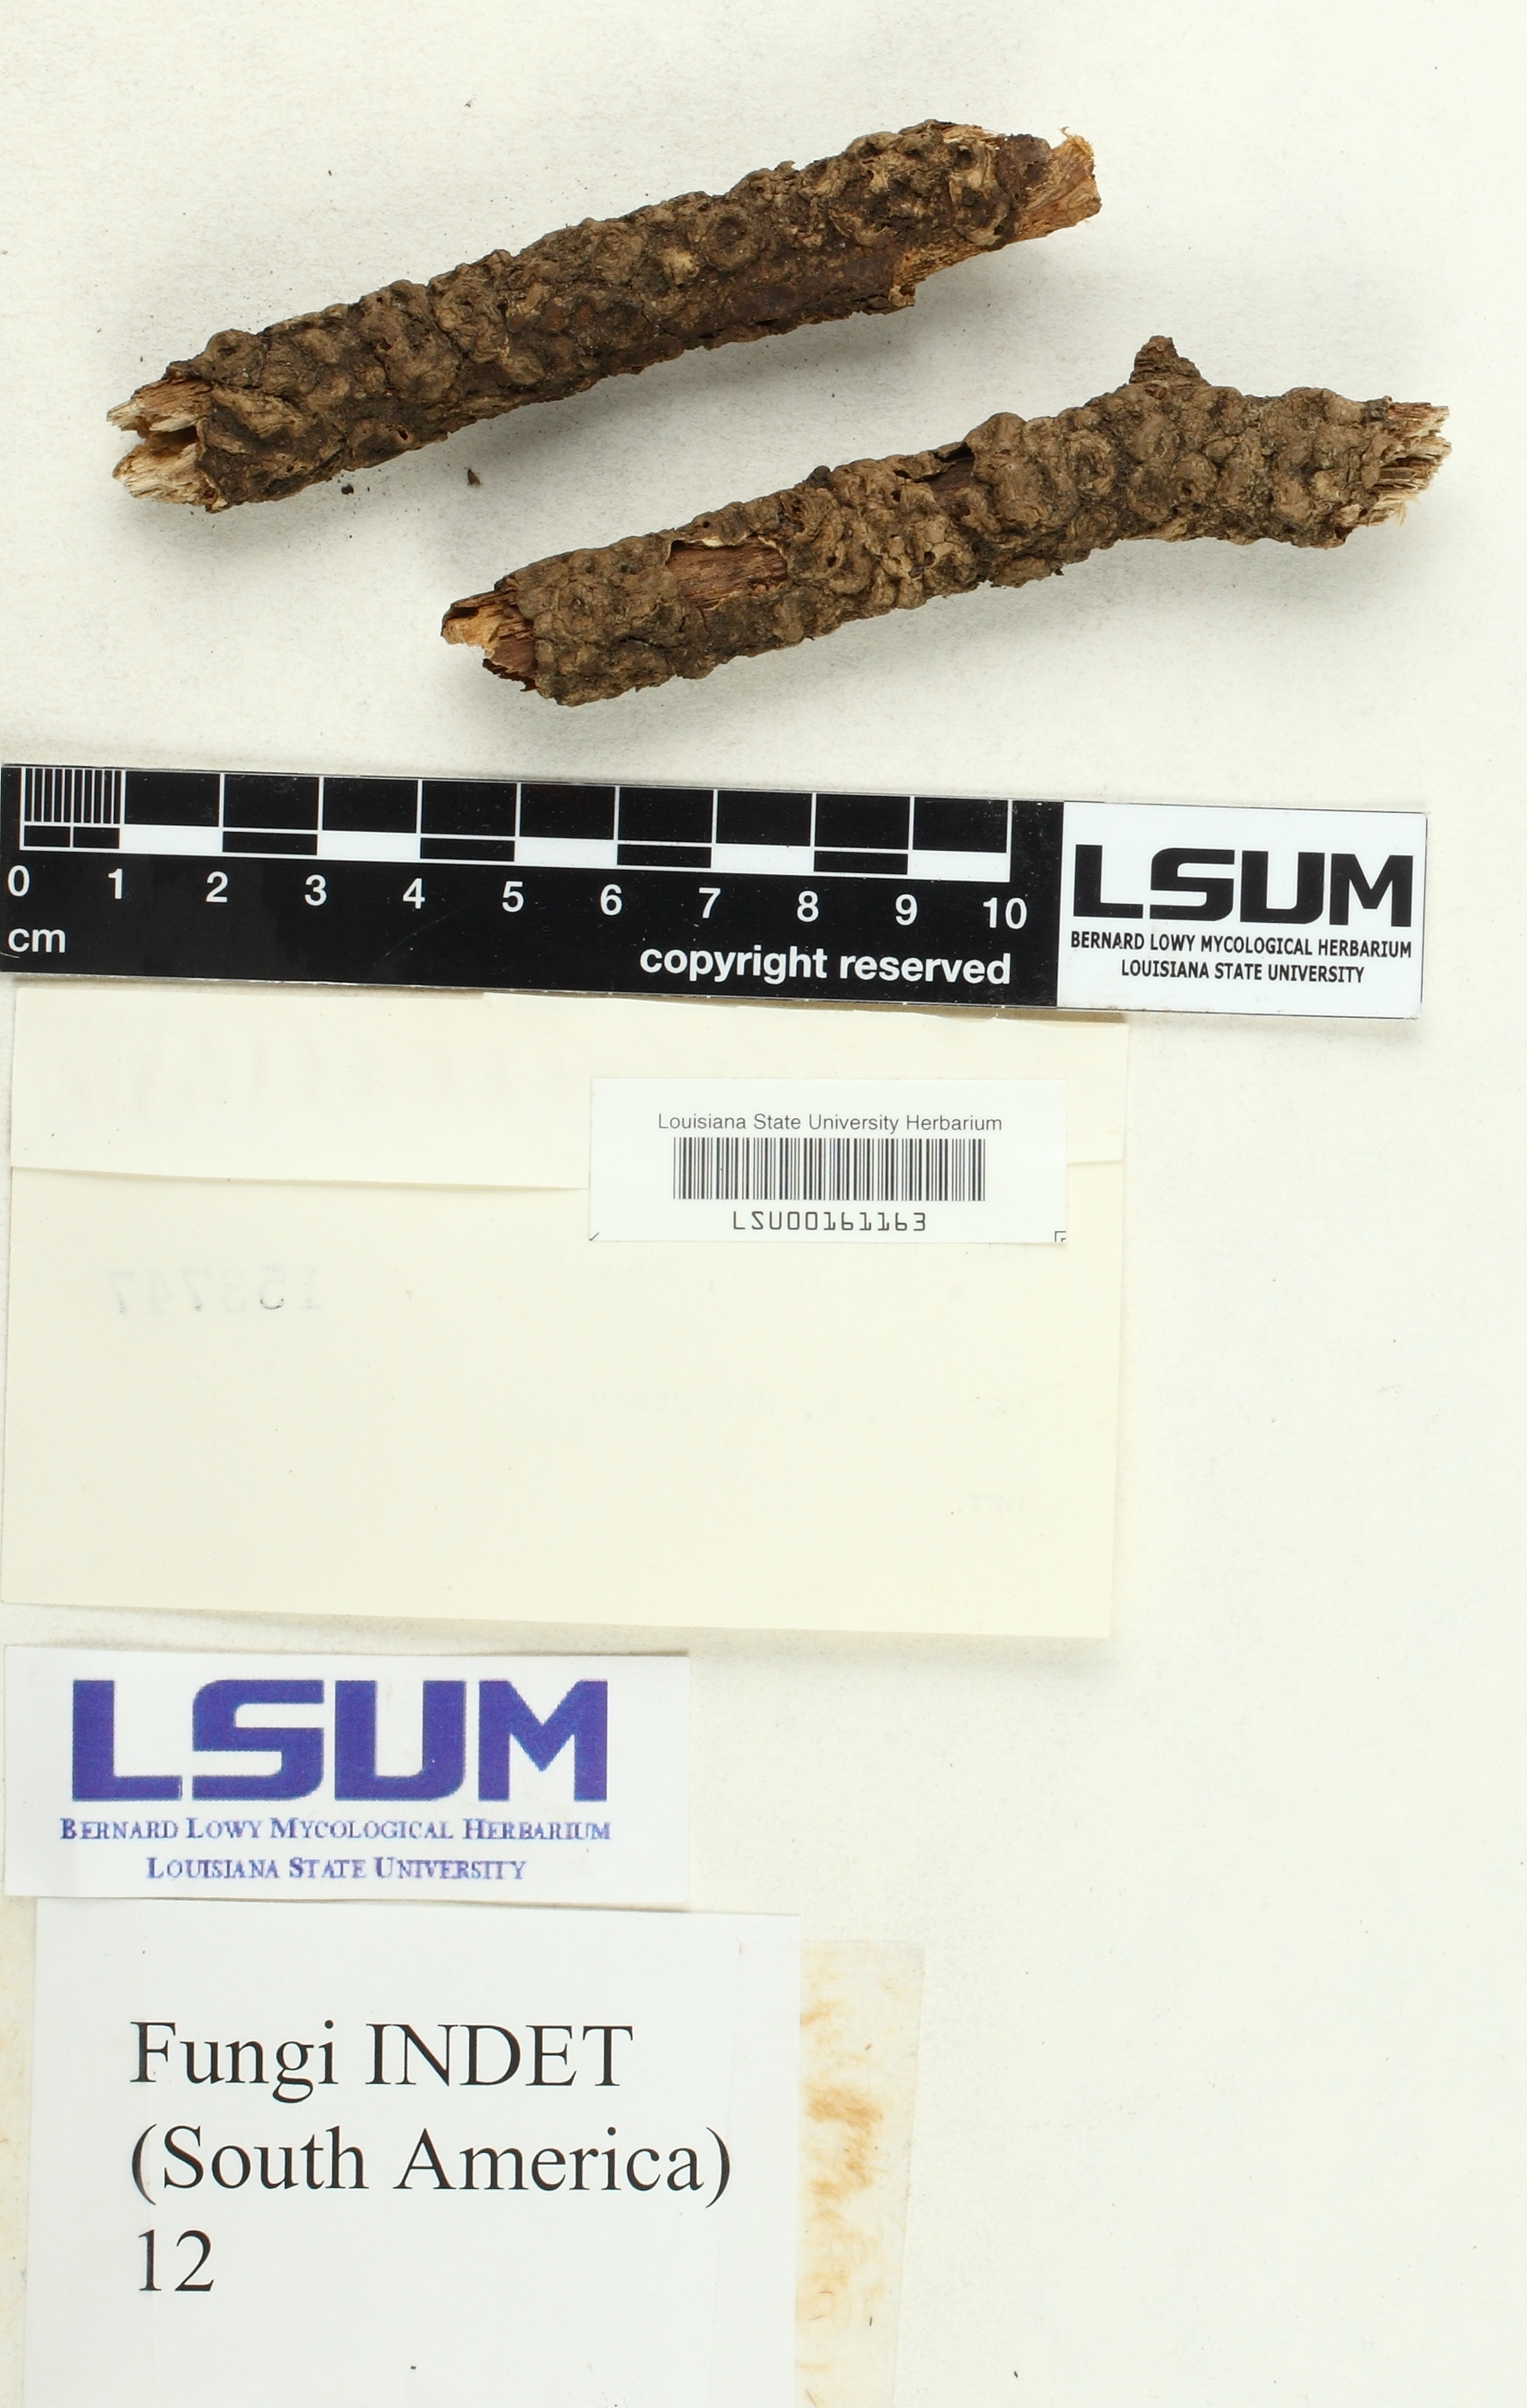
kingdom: Fungi
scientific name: Fungi
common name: Fungi
